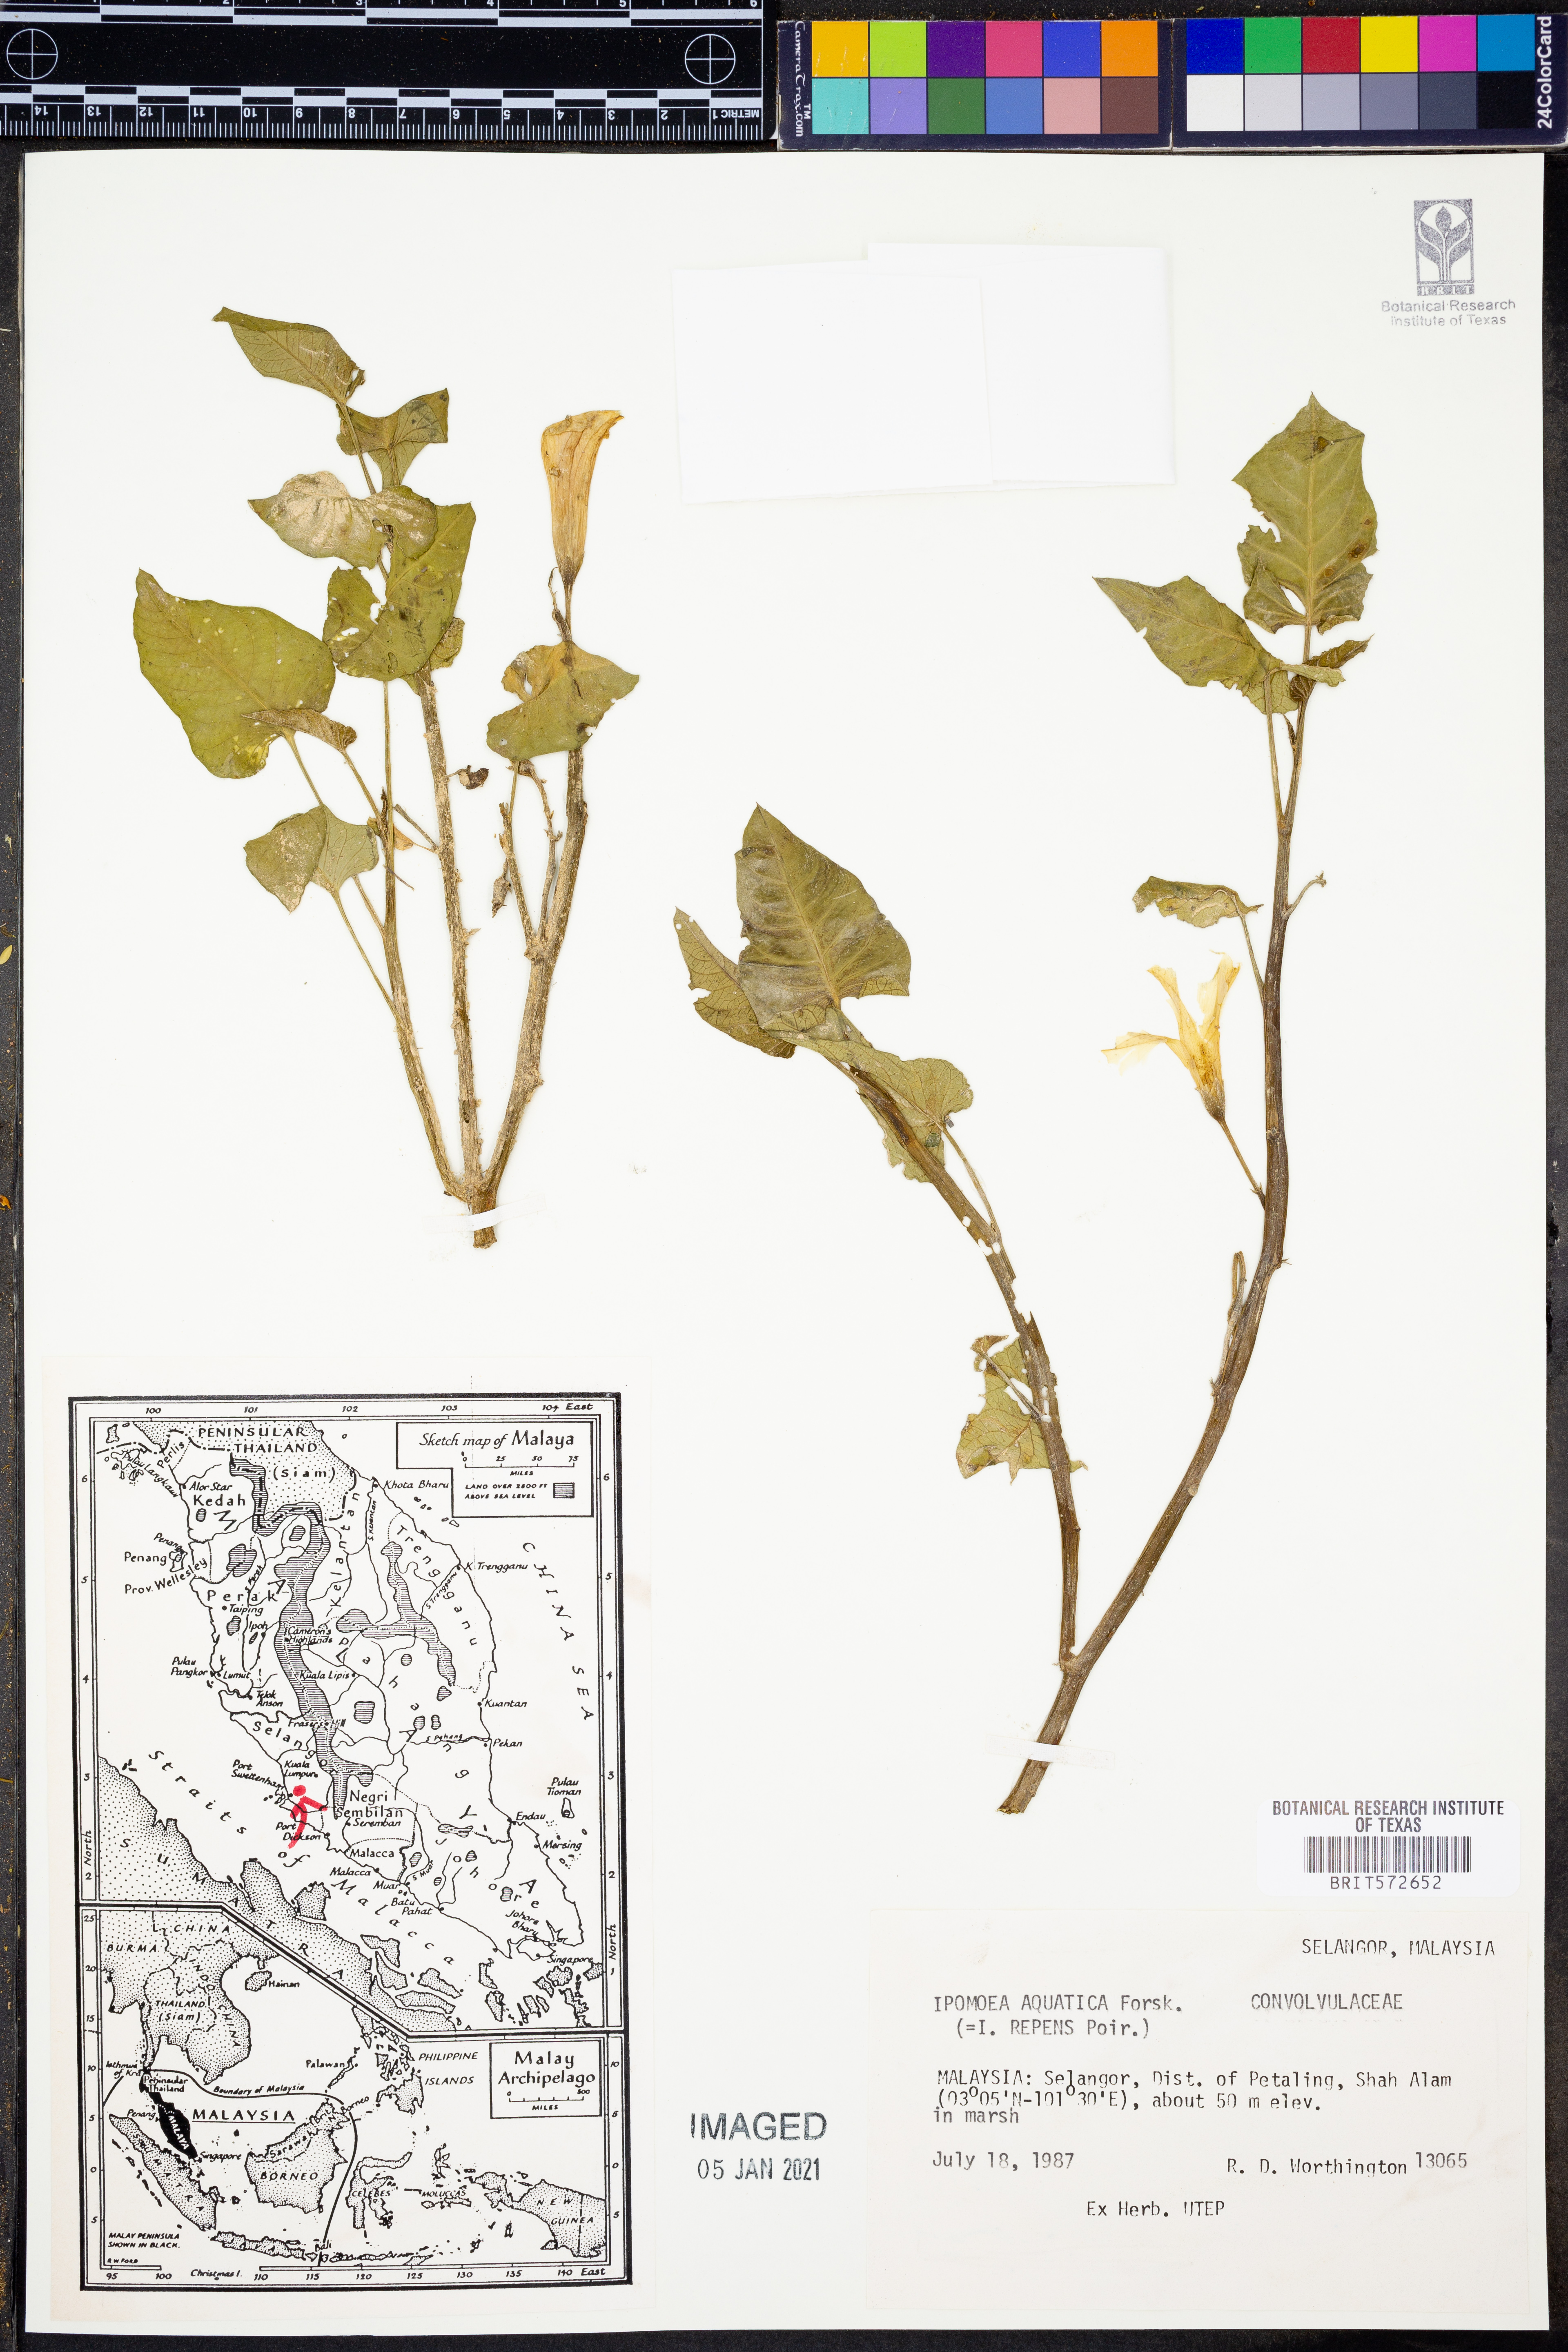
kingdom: Plantae
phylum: Tracheophyta
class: Magnoliopsida
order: Solanales
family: Convolvulaceae
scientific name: Convolvulaceae
